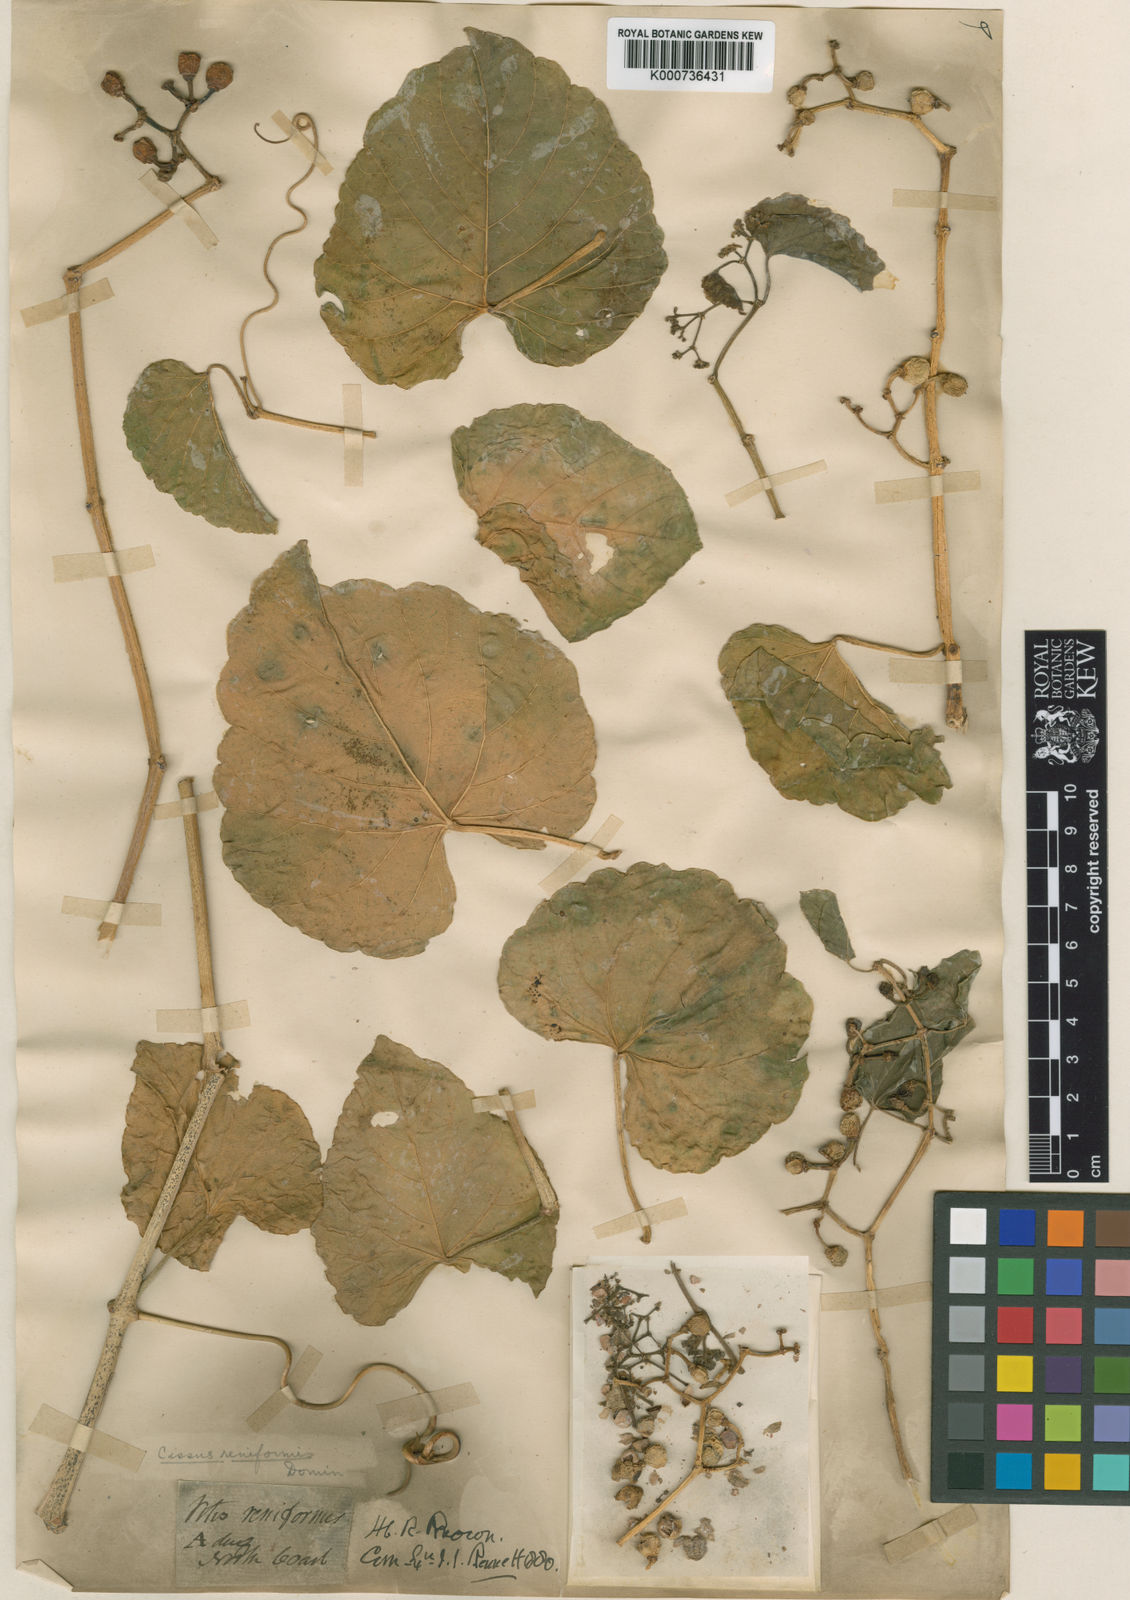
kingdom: Plantae
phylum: Tracheophyta
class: Magnoliopsida
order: Vitales
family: Vitaceae
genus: Cissus
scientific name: Cissus reniformis
